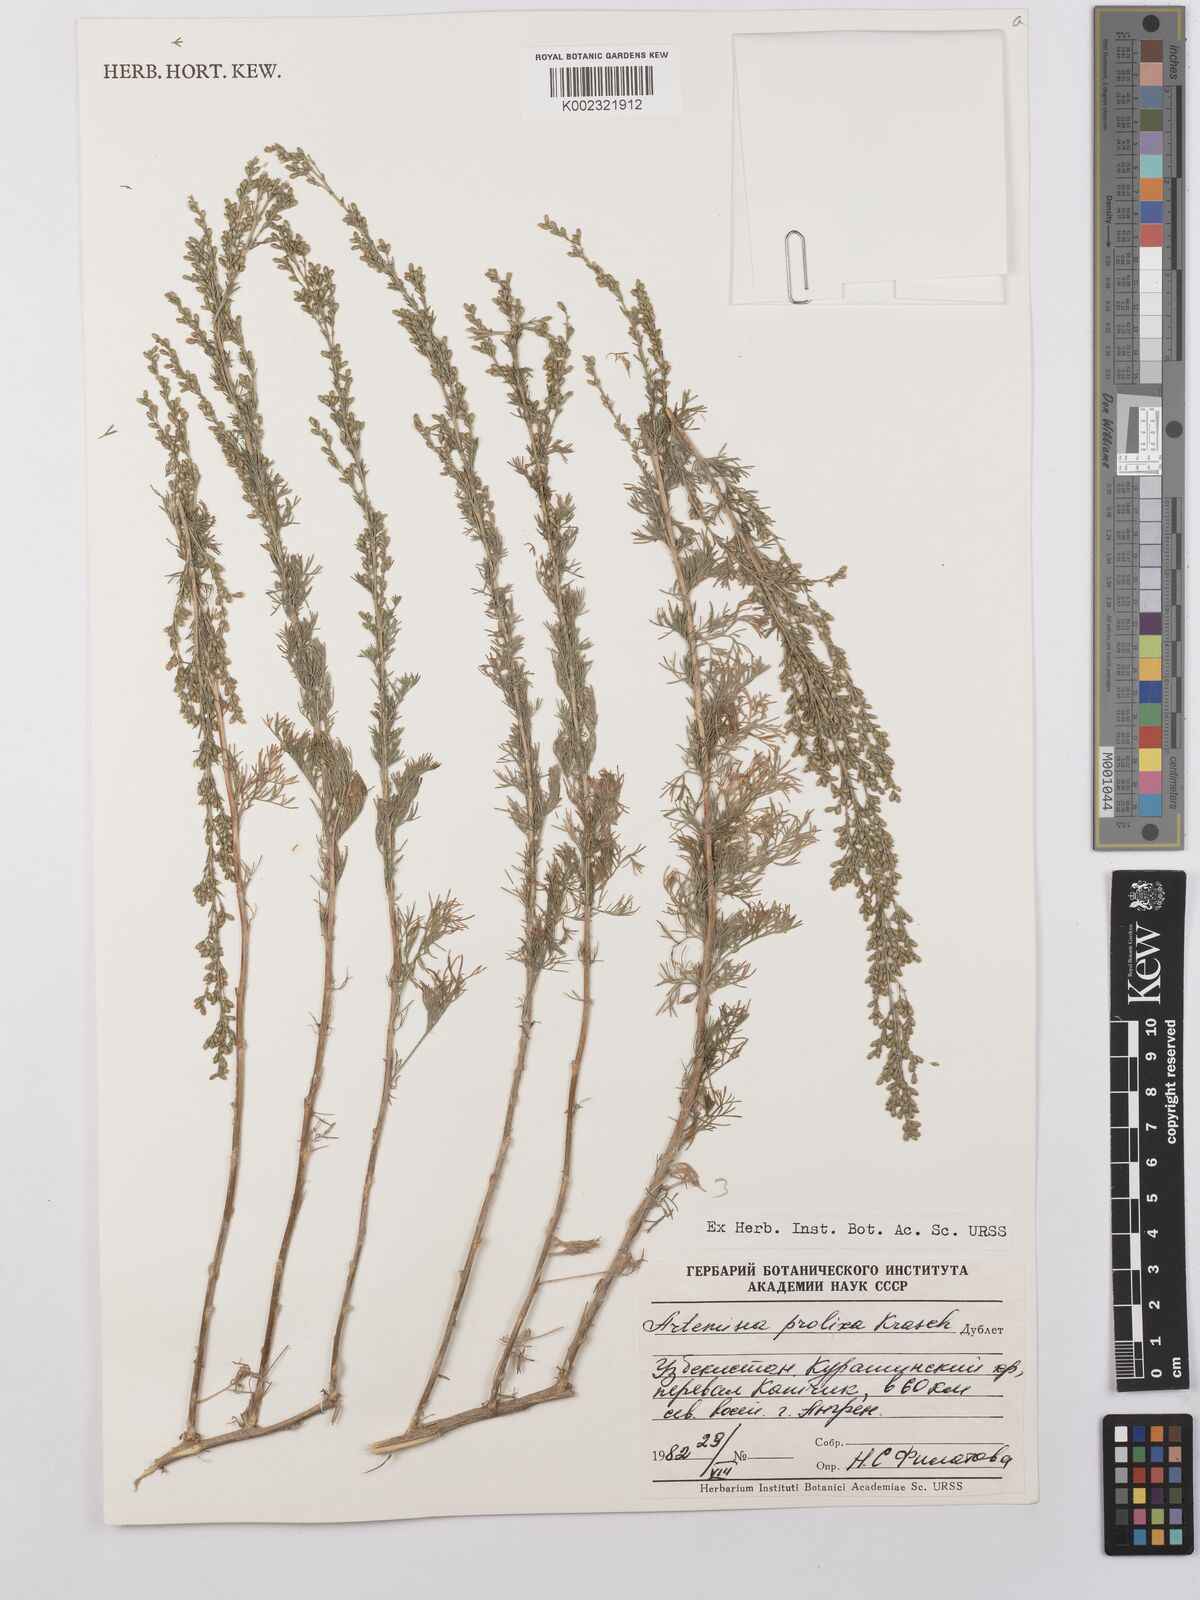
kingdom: Plantae
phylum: Tracheophyta
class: Magnoliopsida
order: Asterales
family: Asteraceae
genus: Artemisia
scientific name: Artemisia prolixa
